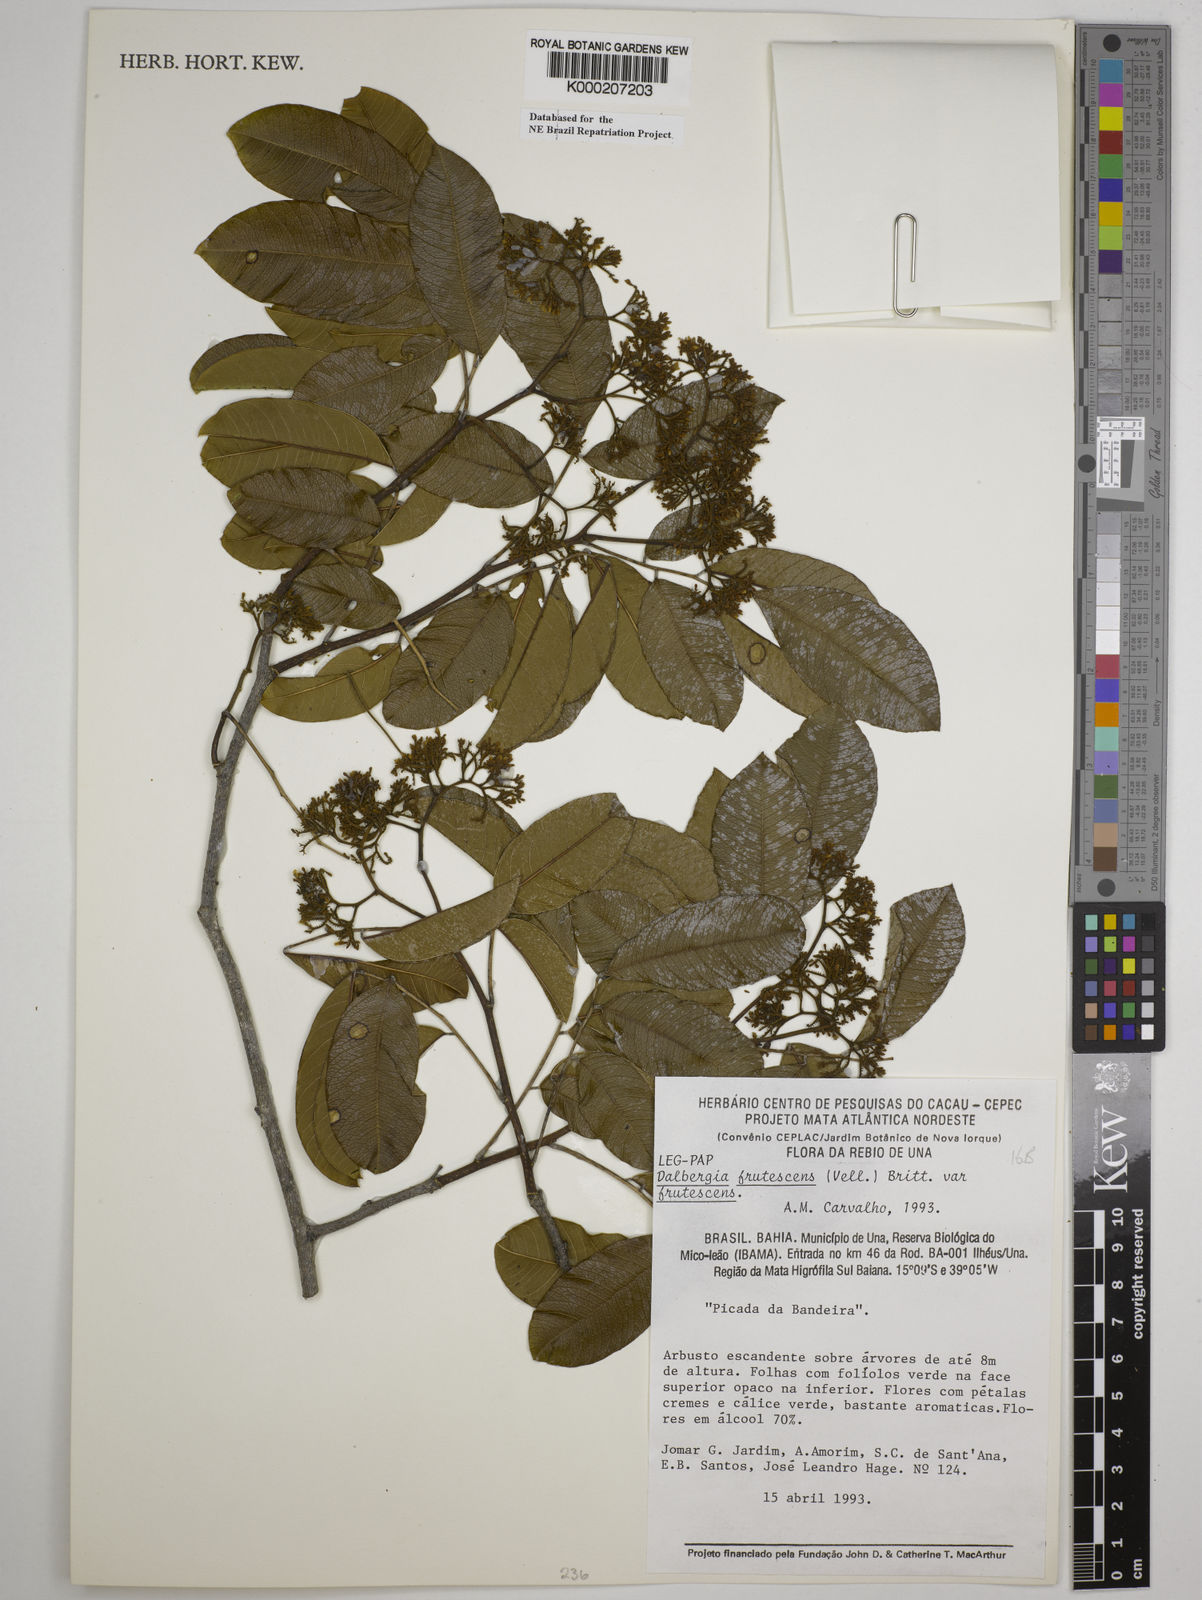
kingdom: Plantae
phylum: Tracheophyta
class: Magnoliopsida
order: Fabales
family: Fabaceae
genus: Dalbergia
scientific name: Dalbergia frutescens
